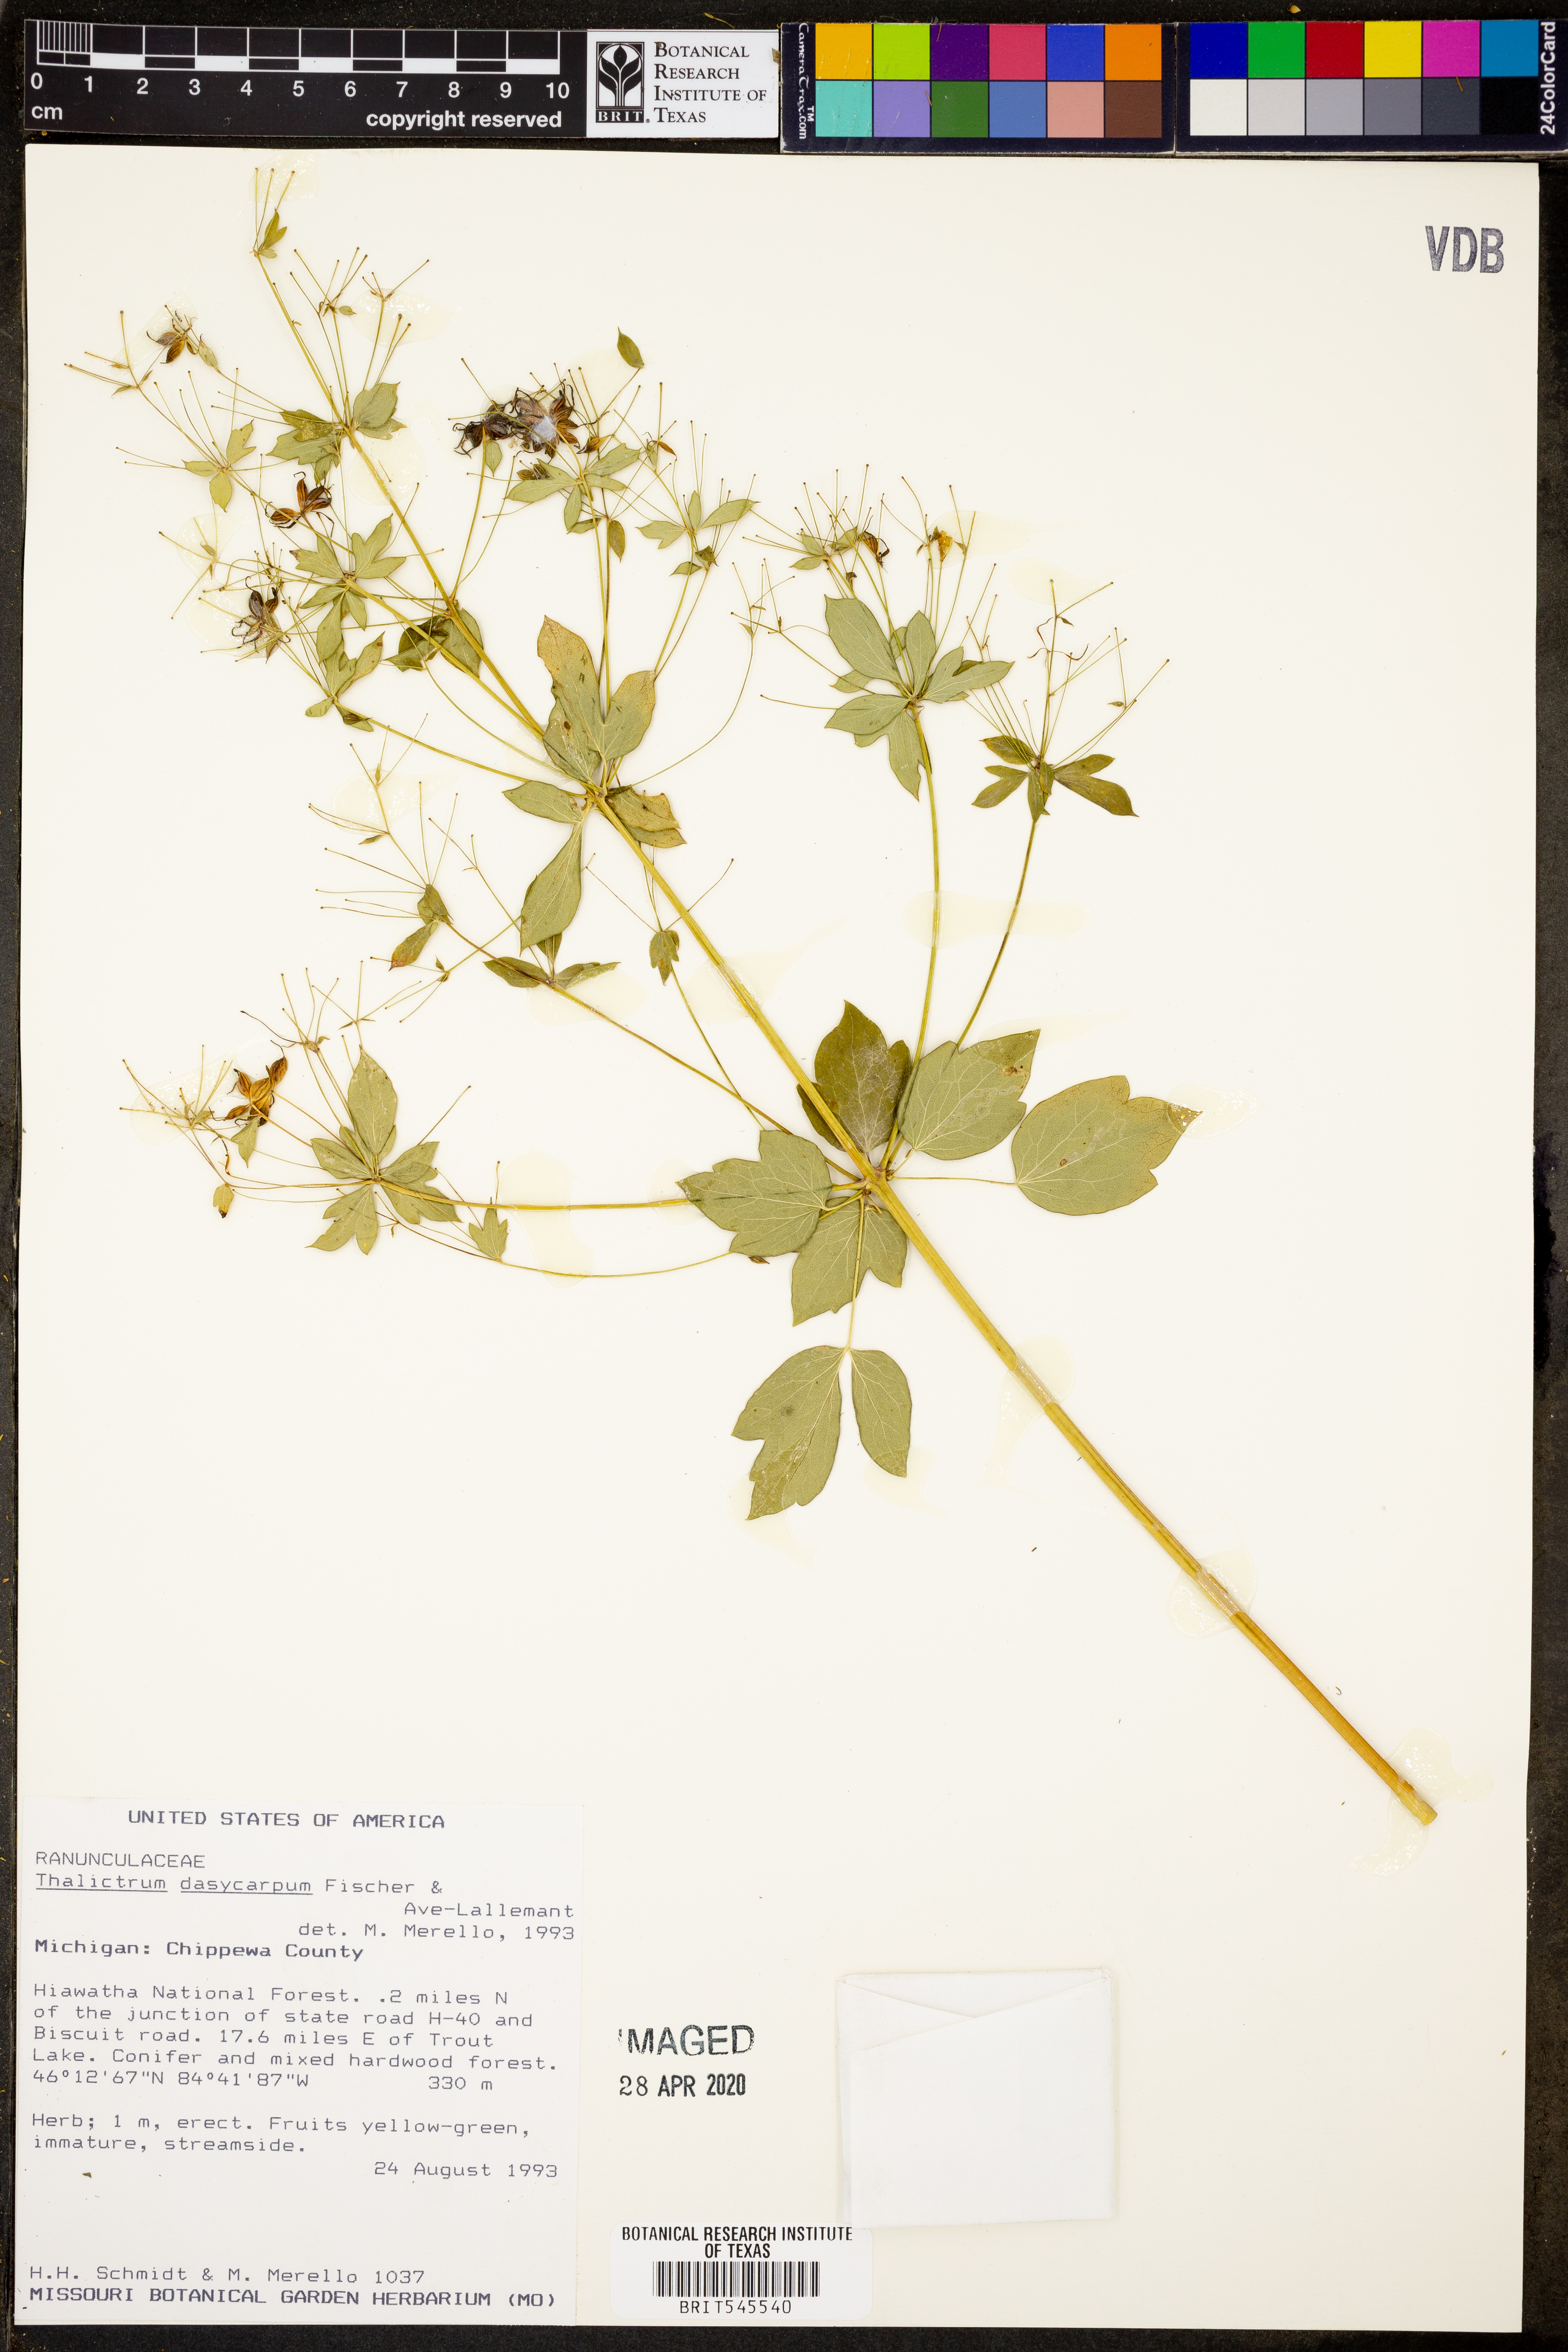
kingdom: Plantae
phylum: Tracheophyta
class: Magnoliopsida
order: Ranunculales
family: Ranunculaceae
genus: Thalictrum
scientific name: Thalictrum dasycarpum
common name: Purple meadow-rue
